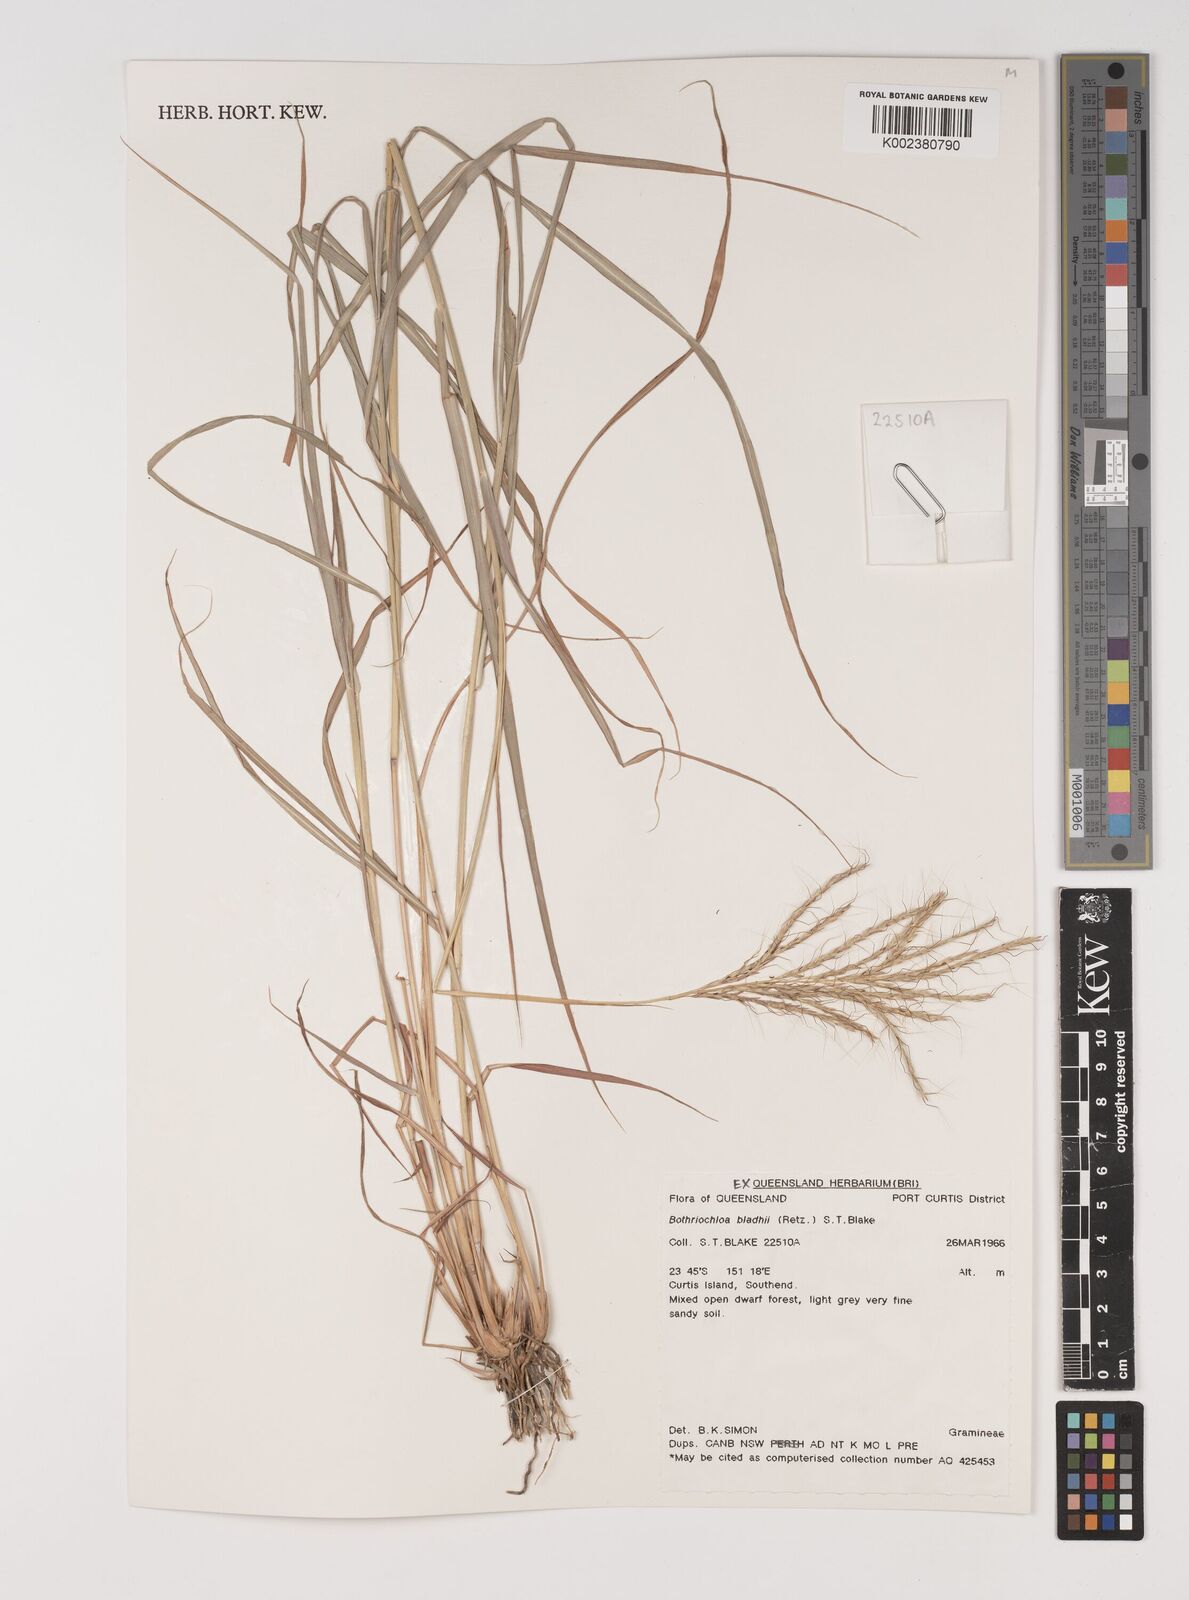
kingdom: Plantae
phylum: Tracheophyta
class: Liliopsida
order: Poales
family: Poaceae
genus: Bothriochloa
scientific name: Bothriochloa bladhii
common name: Caucasian bluestem
